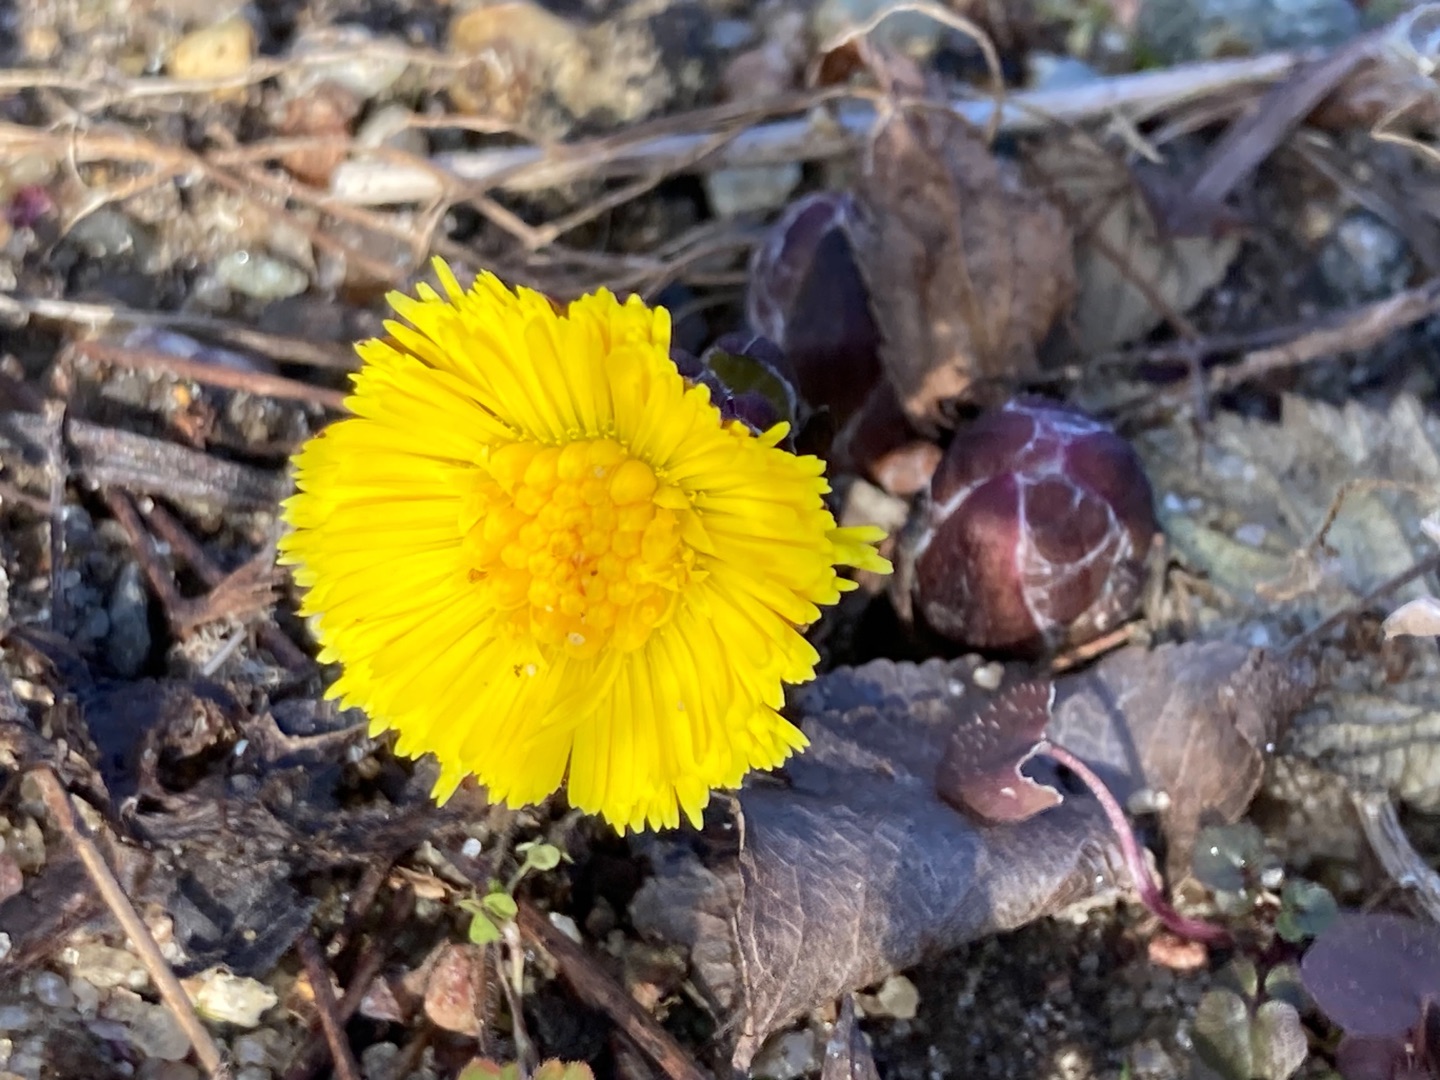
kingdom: Plantae
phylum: Tracheophyta
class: Magnoliopsida
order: Asterales
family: Asteraceae
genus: Tussilago
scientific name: Tussilago farfara
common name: Følfod
